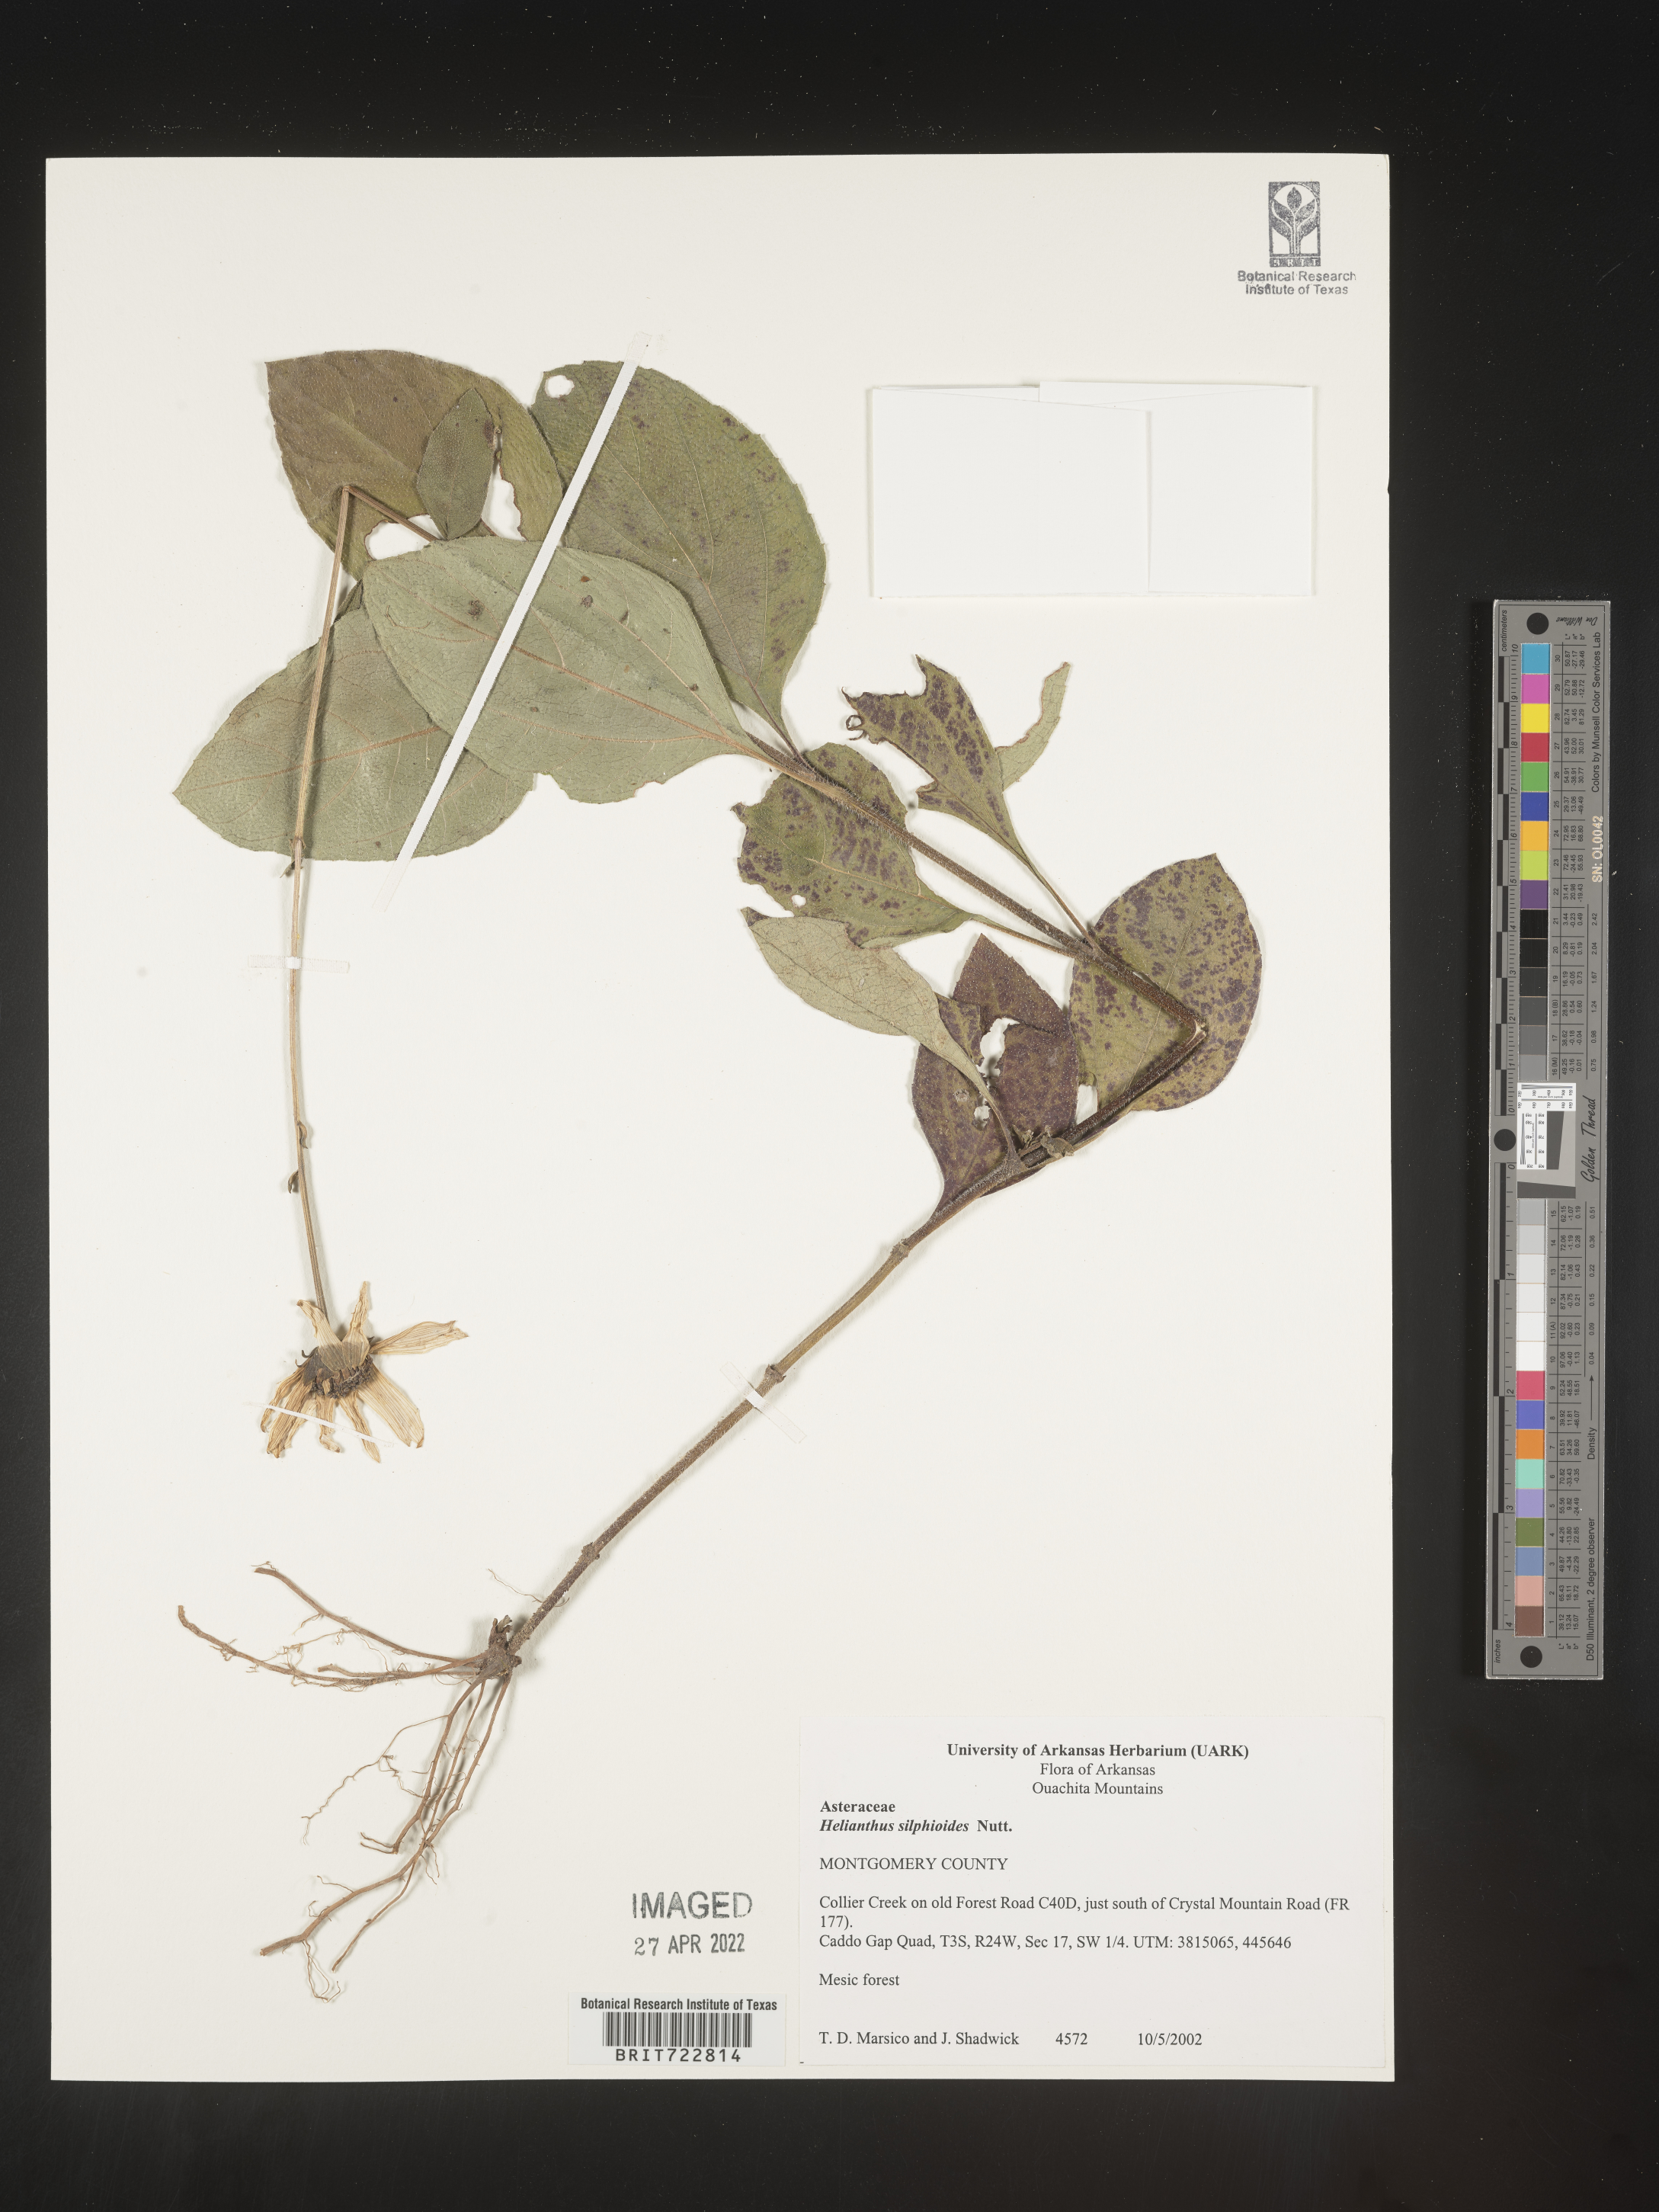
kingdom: Plantae
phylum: Tracheophyta
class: Magnoliopsida
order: Asterales
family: Asteraceae
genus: Helianthus
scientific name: Helianthus silphioides
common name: Odorous sunflower
